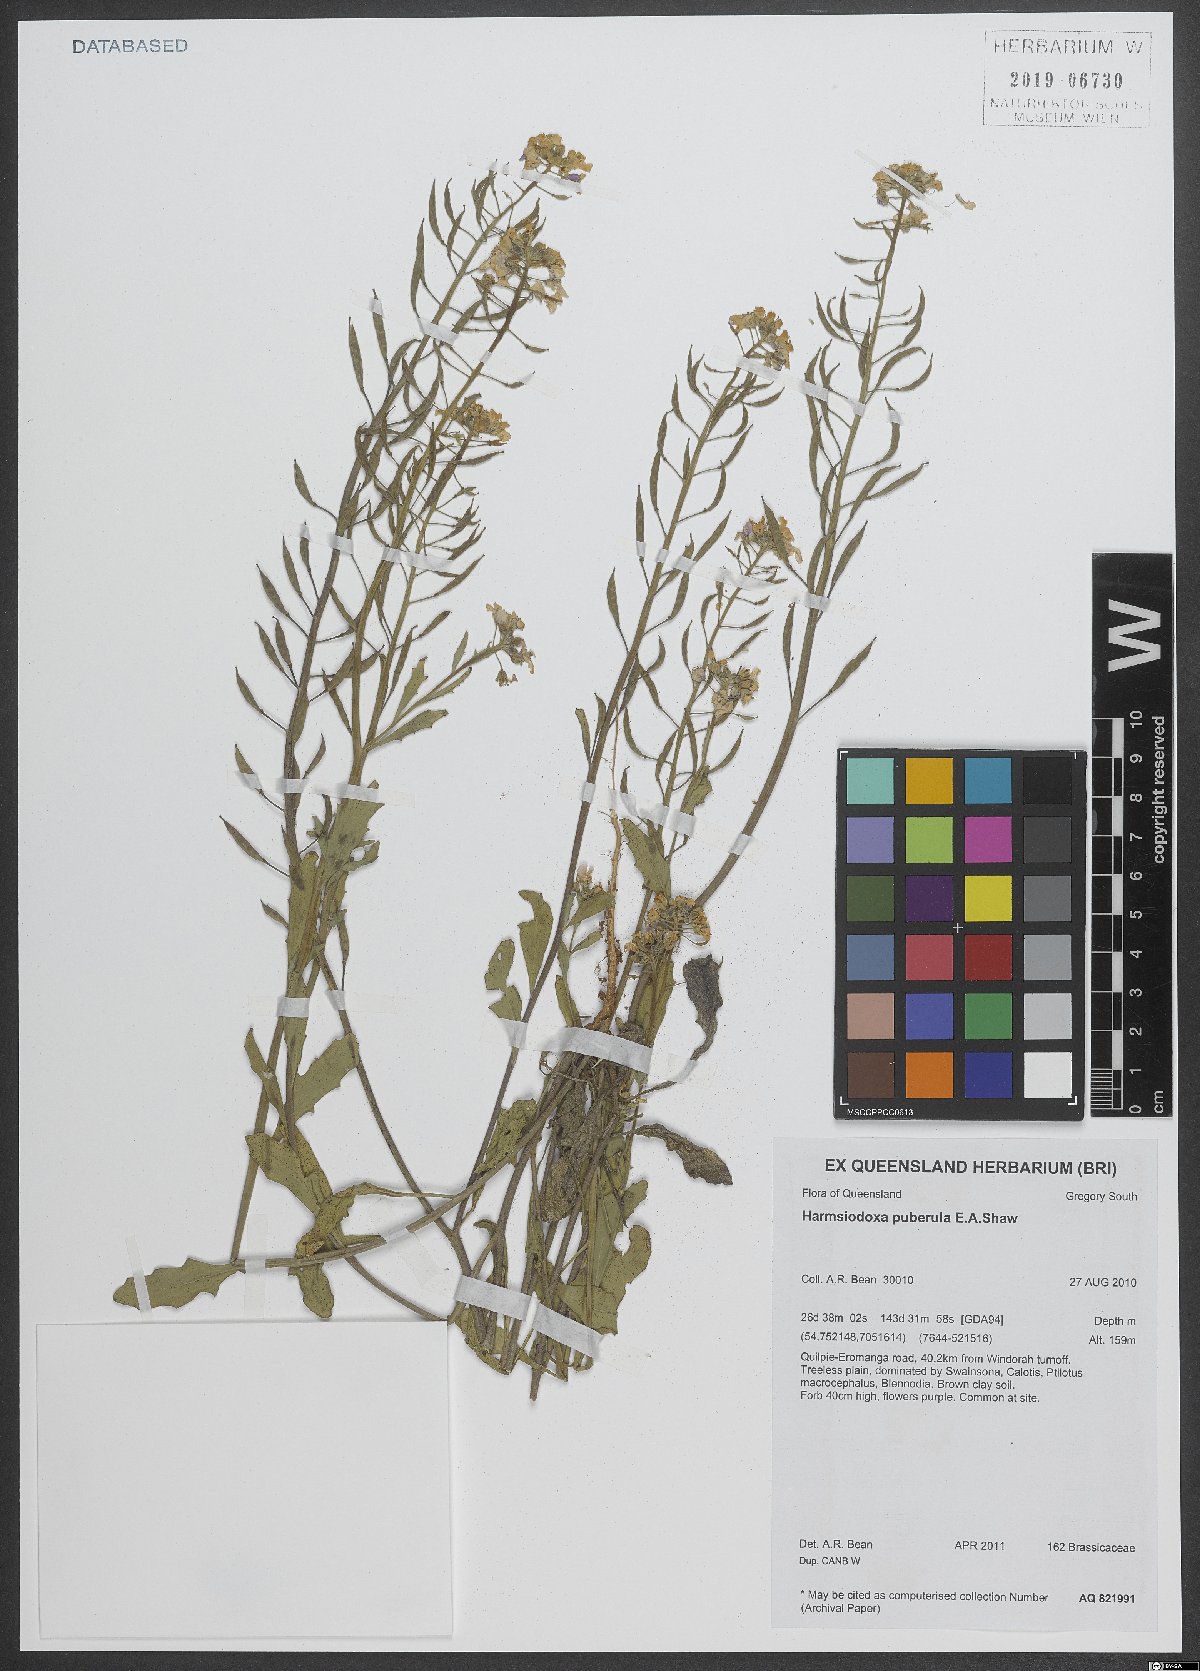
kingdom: Plantae
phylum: Tracheophyta
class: Magnoliopsida
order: Brassicales
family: Brassicaceae
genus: Harmsiodoxa
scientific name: Harmsiodoxa puberula
